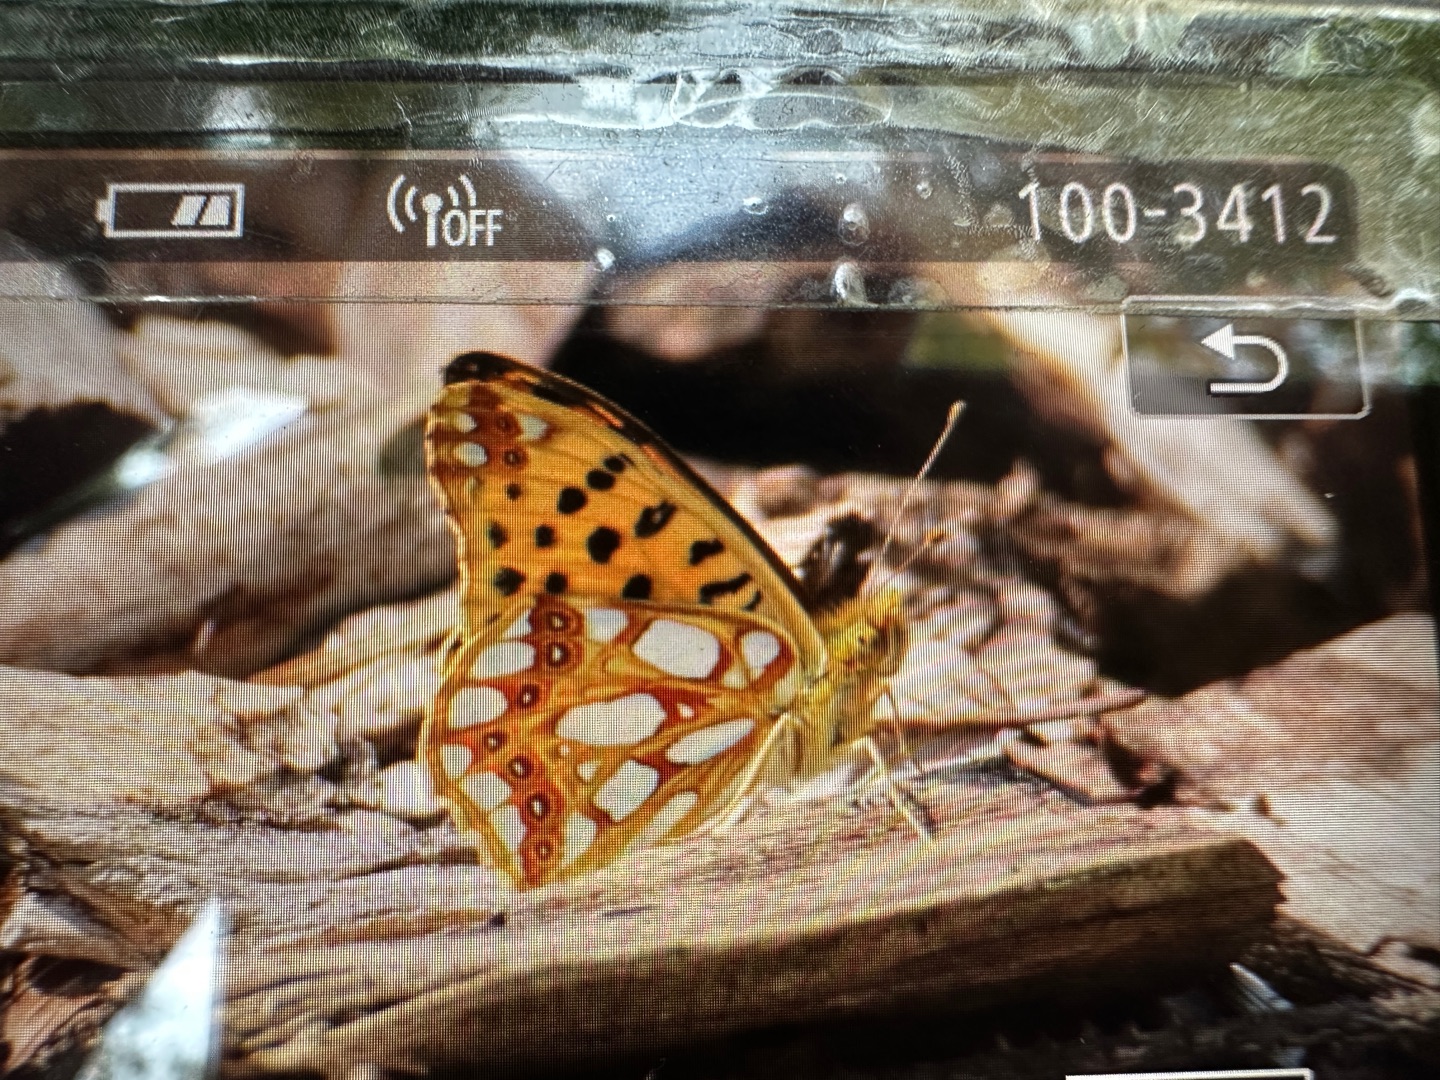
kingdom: Animalia
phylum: Arthropoda
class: Insecta
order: Lepidoptera
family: Nymphalidae
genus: Issoria
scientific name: Issoria lathonia
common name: Storplettet perlemorsommerfugl
